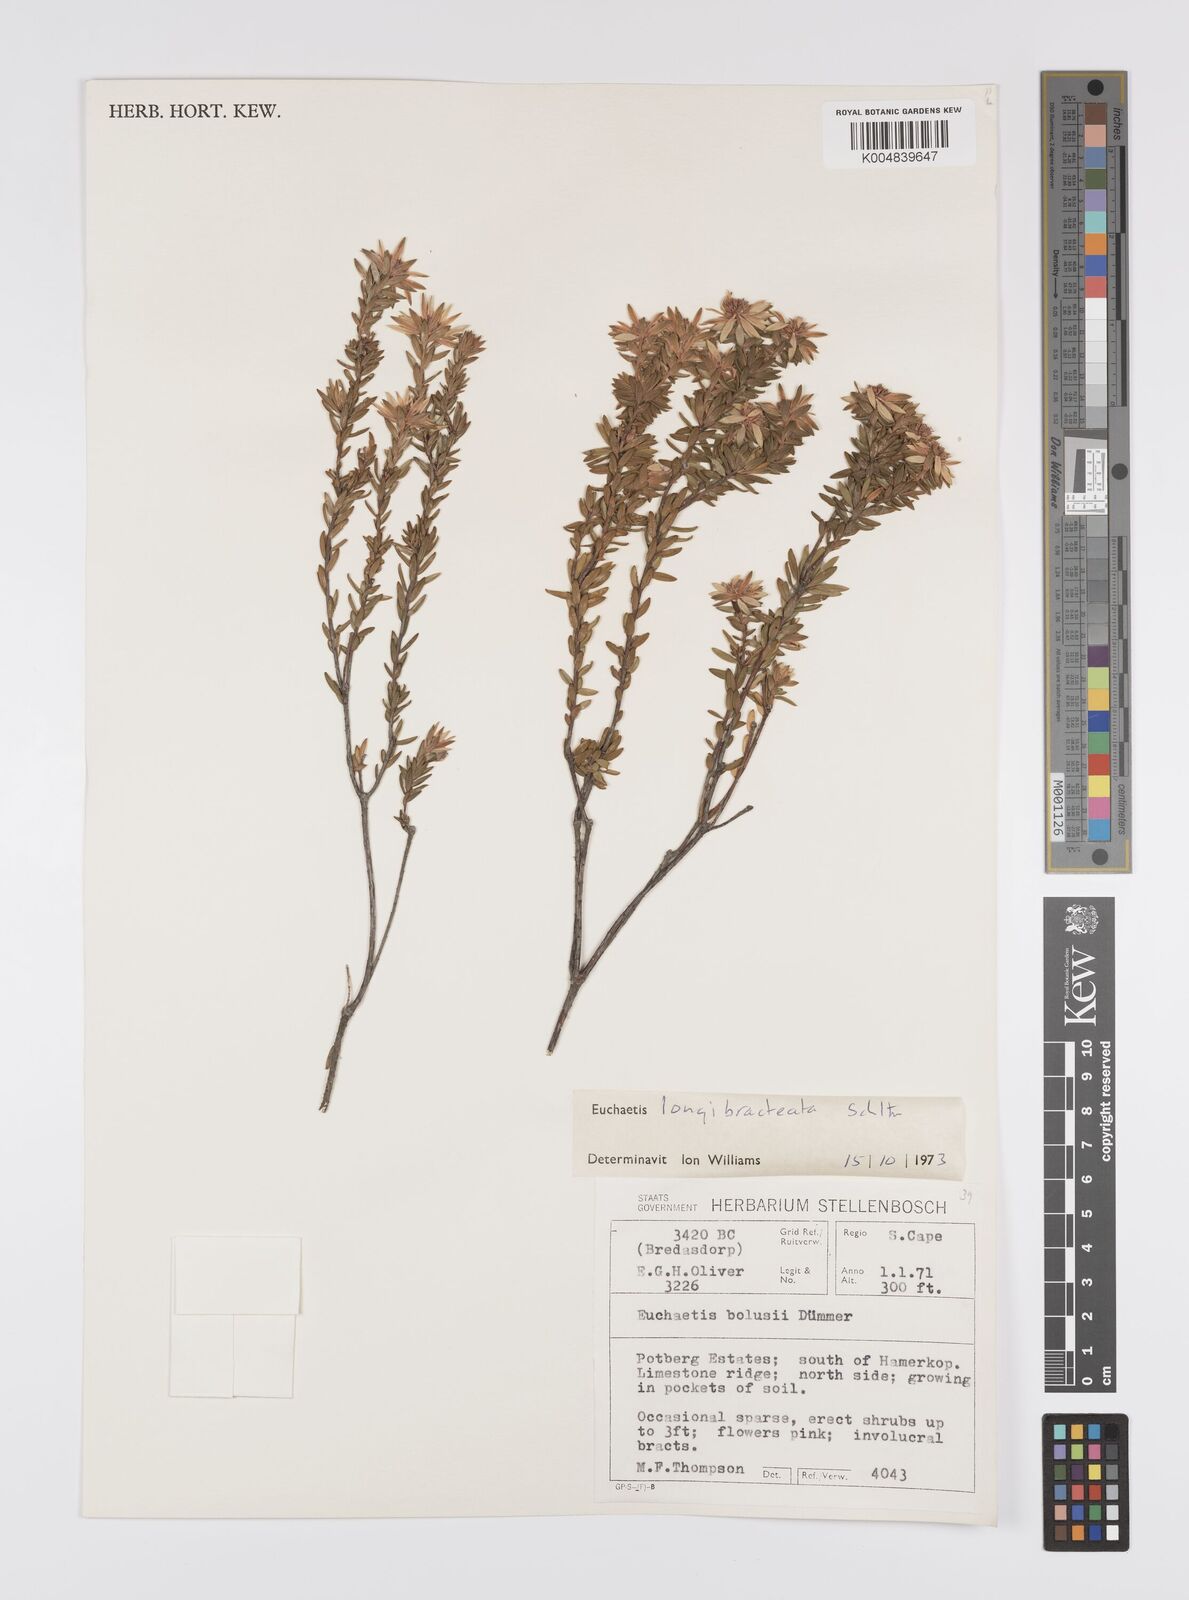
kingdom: Plantae
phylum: Tracheophyta
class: Magnoliopsida
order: Sapindales
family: Rutaceae
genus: Euchaetis
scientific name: Euchaetis longibracteata
